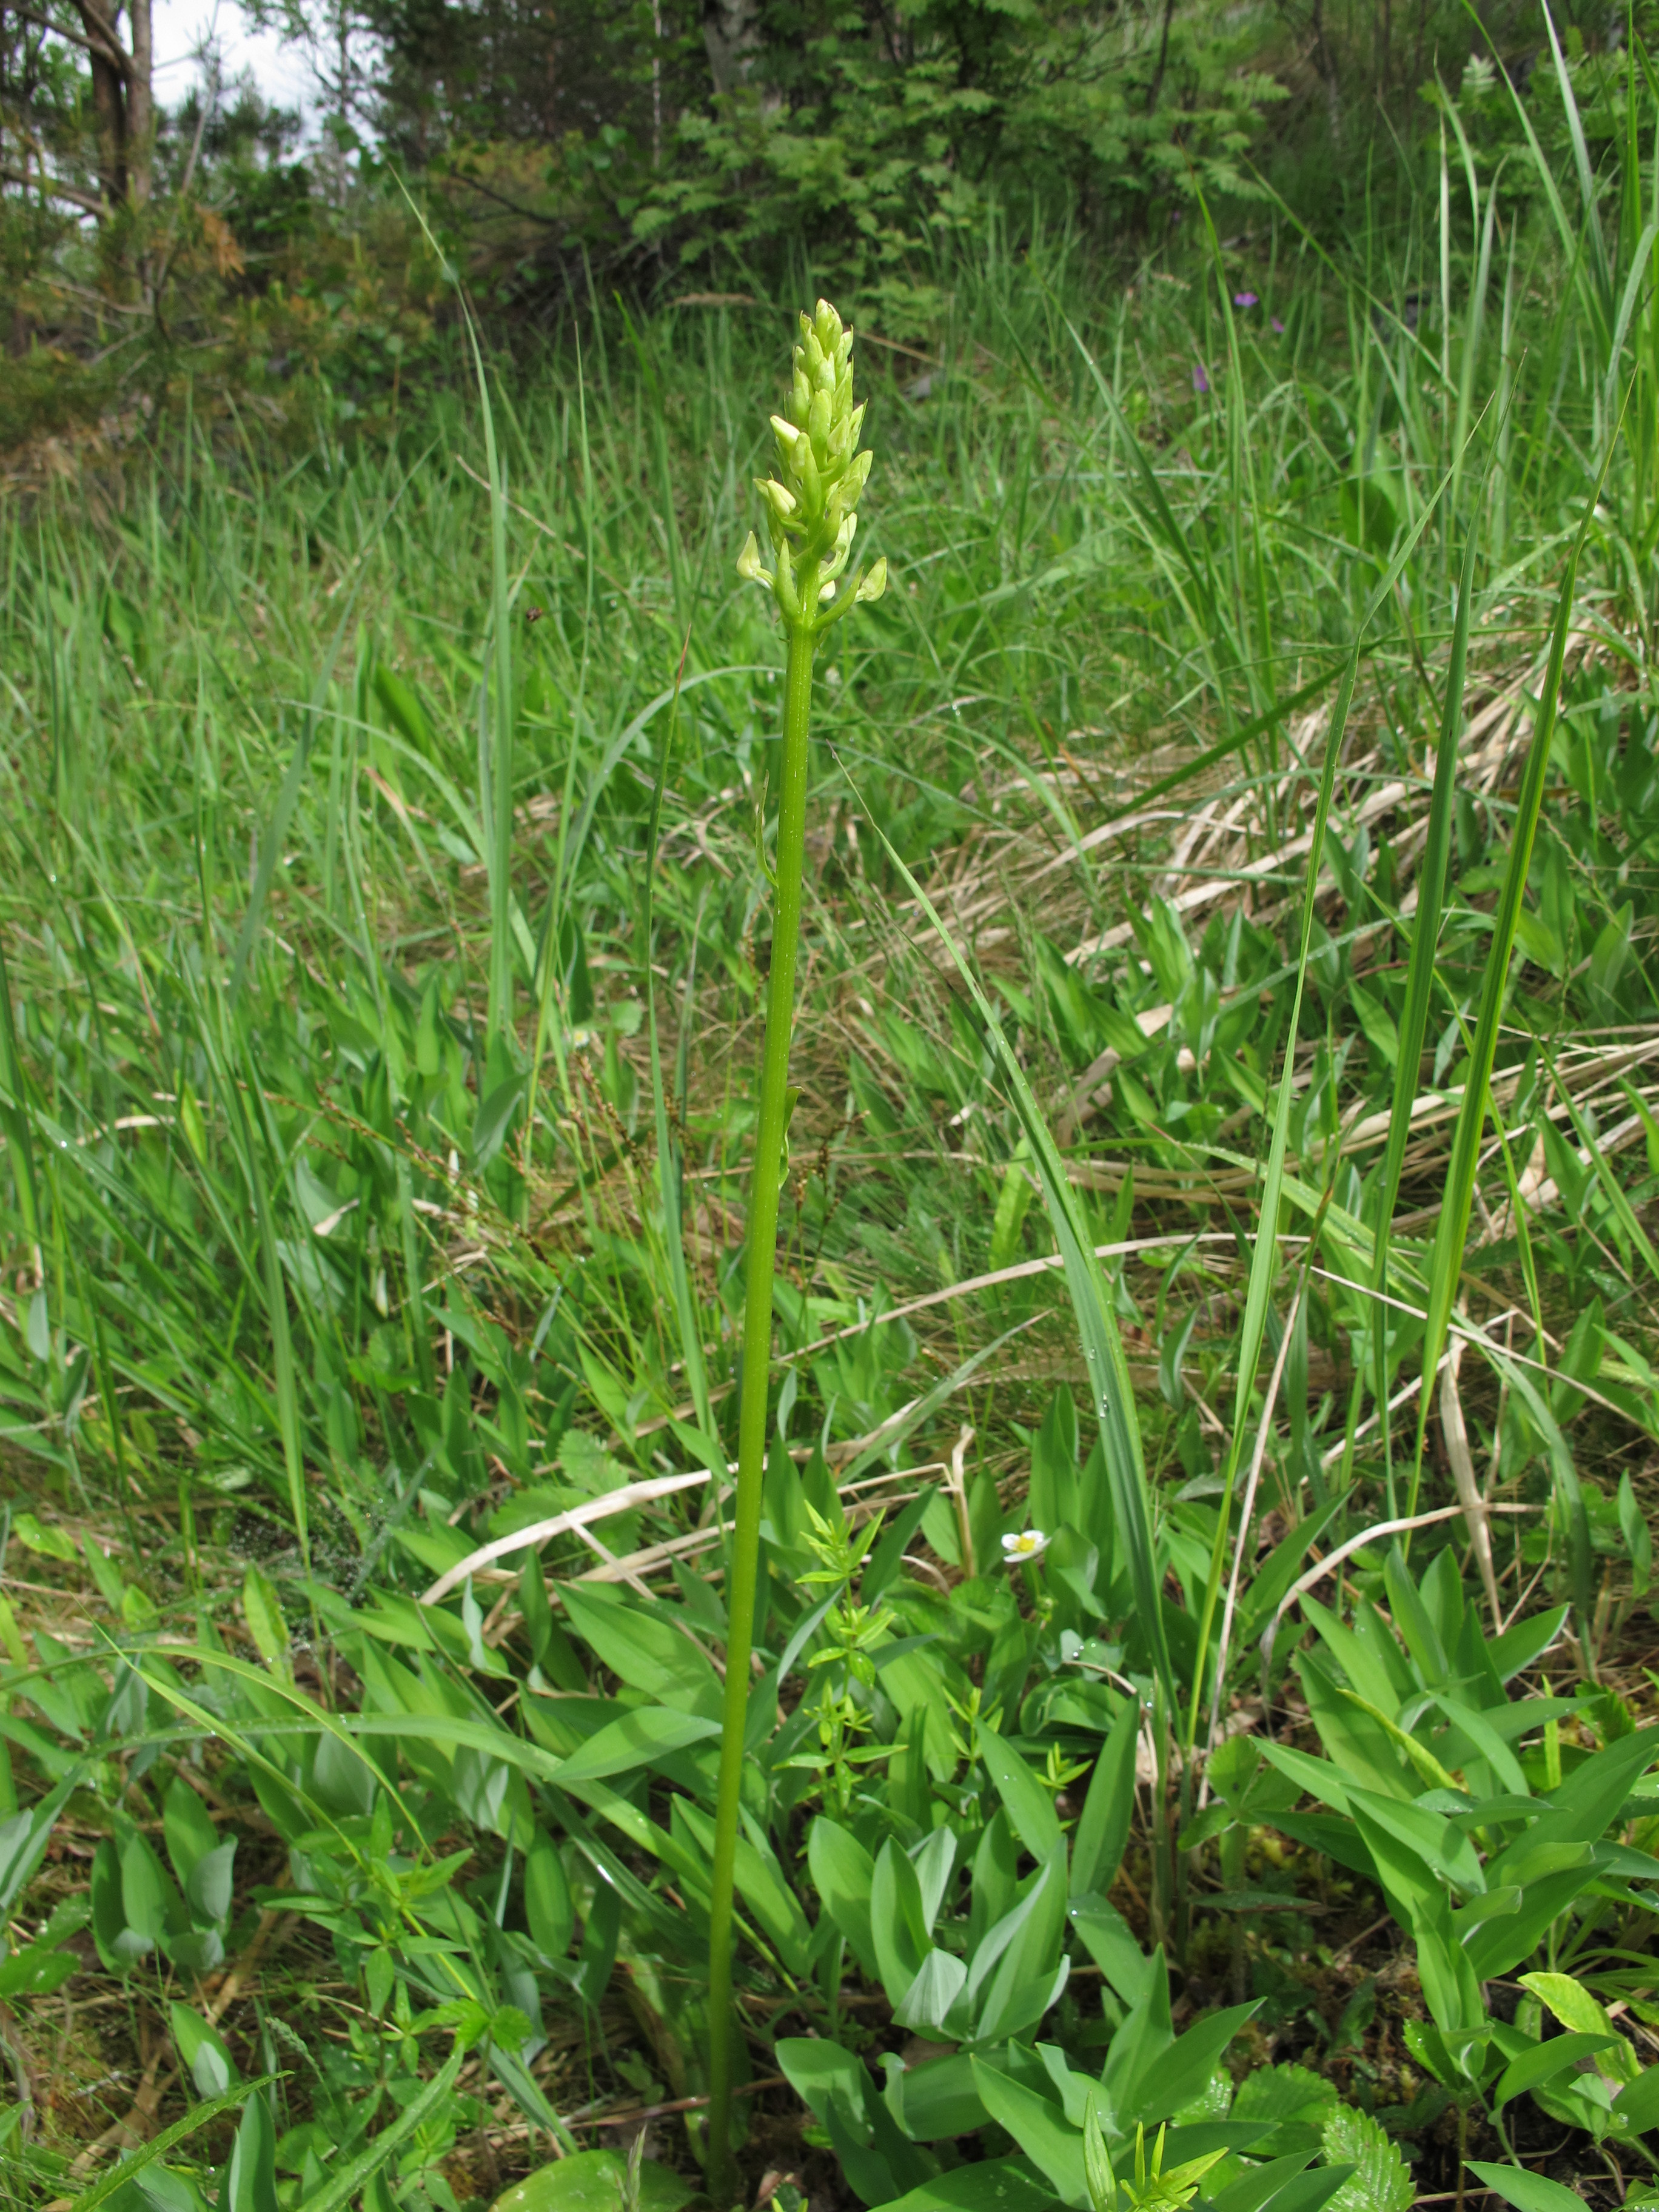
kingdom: Plantae
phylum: Tracheophyta
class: Liliopsida
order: Asparagales
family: Orchidaceae
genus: Platanthera
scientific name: Platanthera bifolia
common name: Lesser butterfly-orchid
